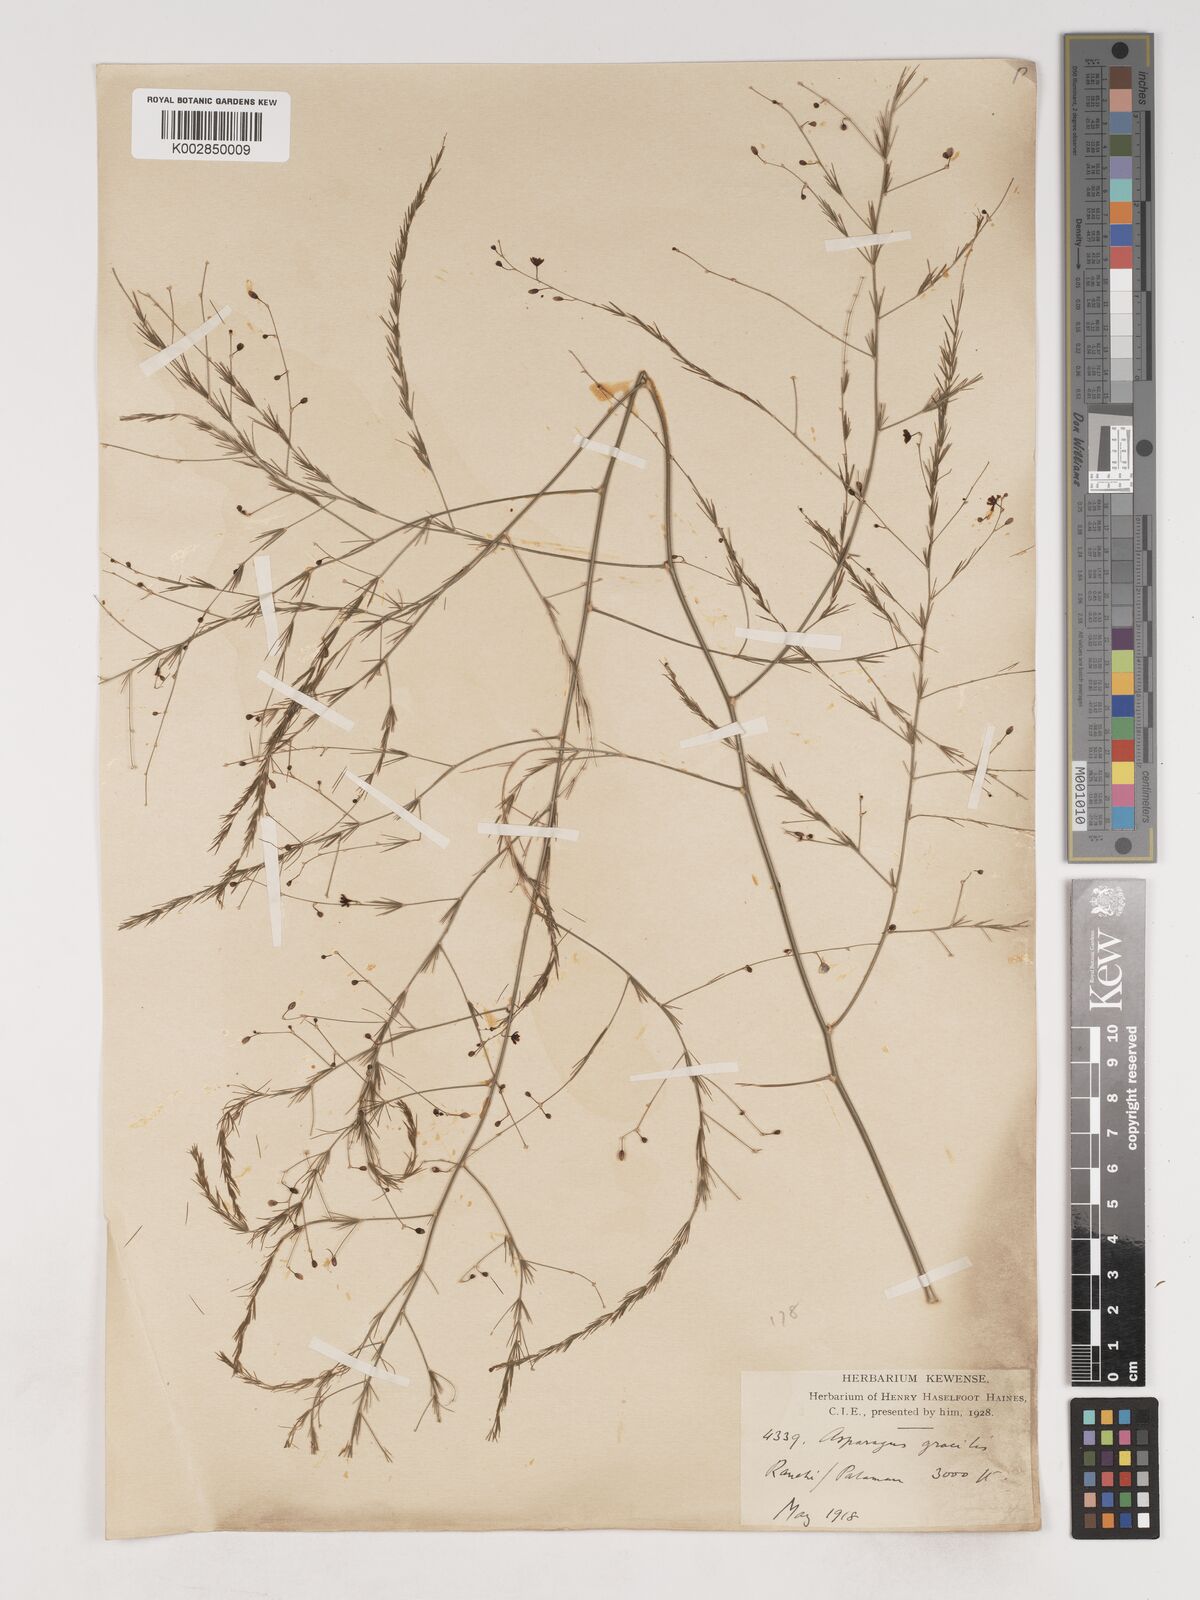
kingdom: Plantae
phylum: Tracheophyta
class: Liliopsida
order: Asparagales
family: Asparagaceae
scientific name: Asparagaceae
